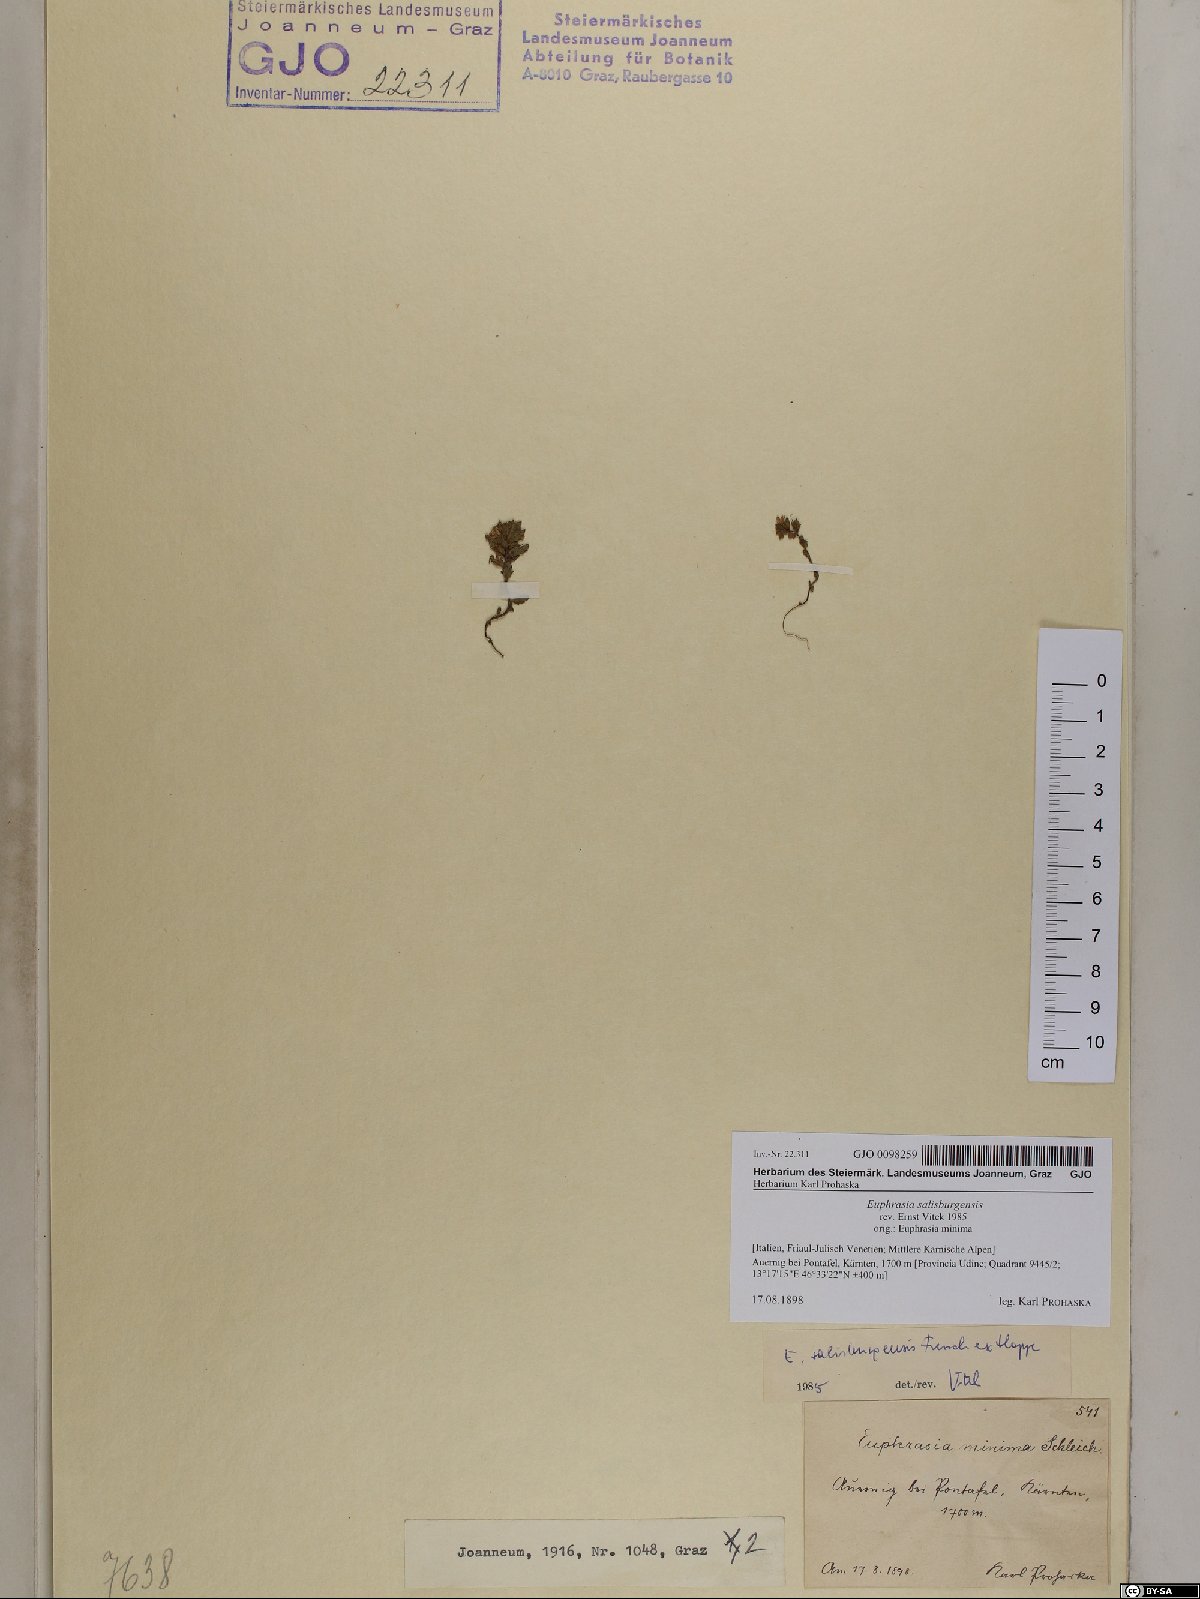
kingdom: Plantae
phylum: Tracheophyta
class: Magnoliopsida
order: Lamiales
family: Orobanchaceae
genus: Euphrasia
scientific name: Euphrasia salisburgensis
